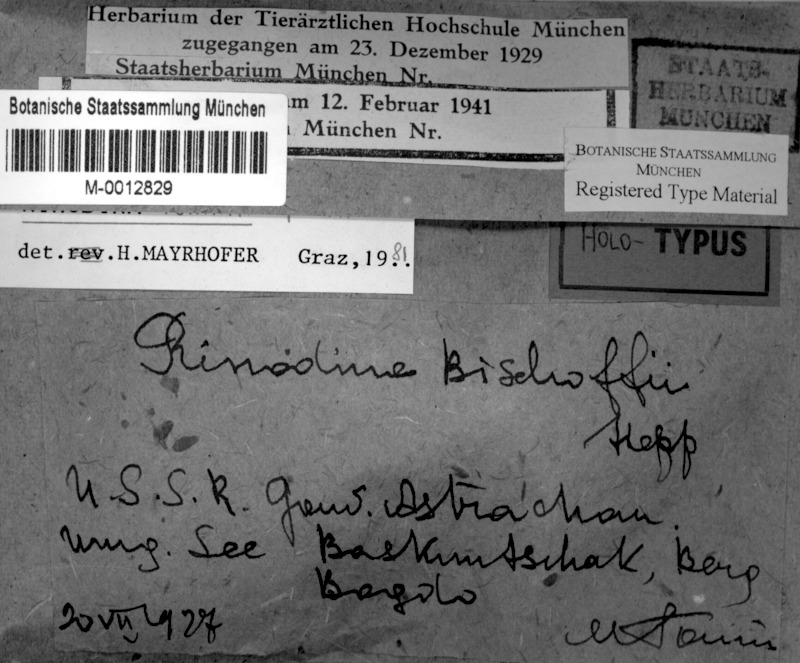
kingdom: Fungi
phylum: Ascomycota
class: Lecanoromycetes
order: Caliciales
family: Physciaceae
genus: Rinodina
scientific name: Rinodina
